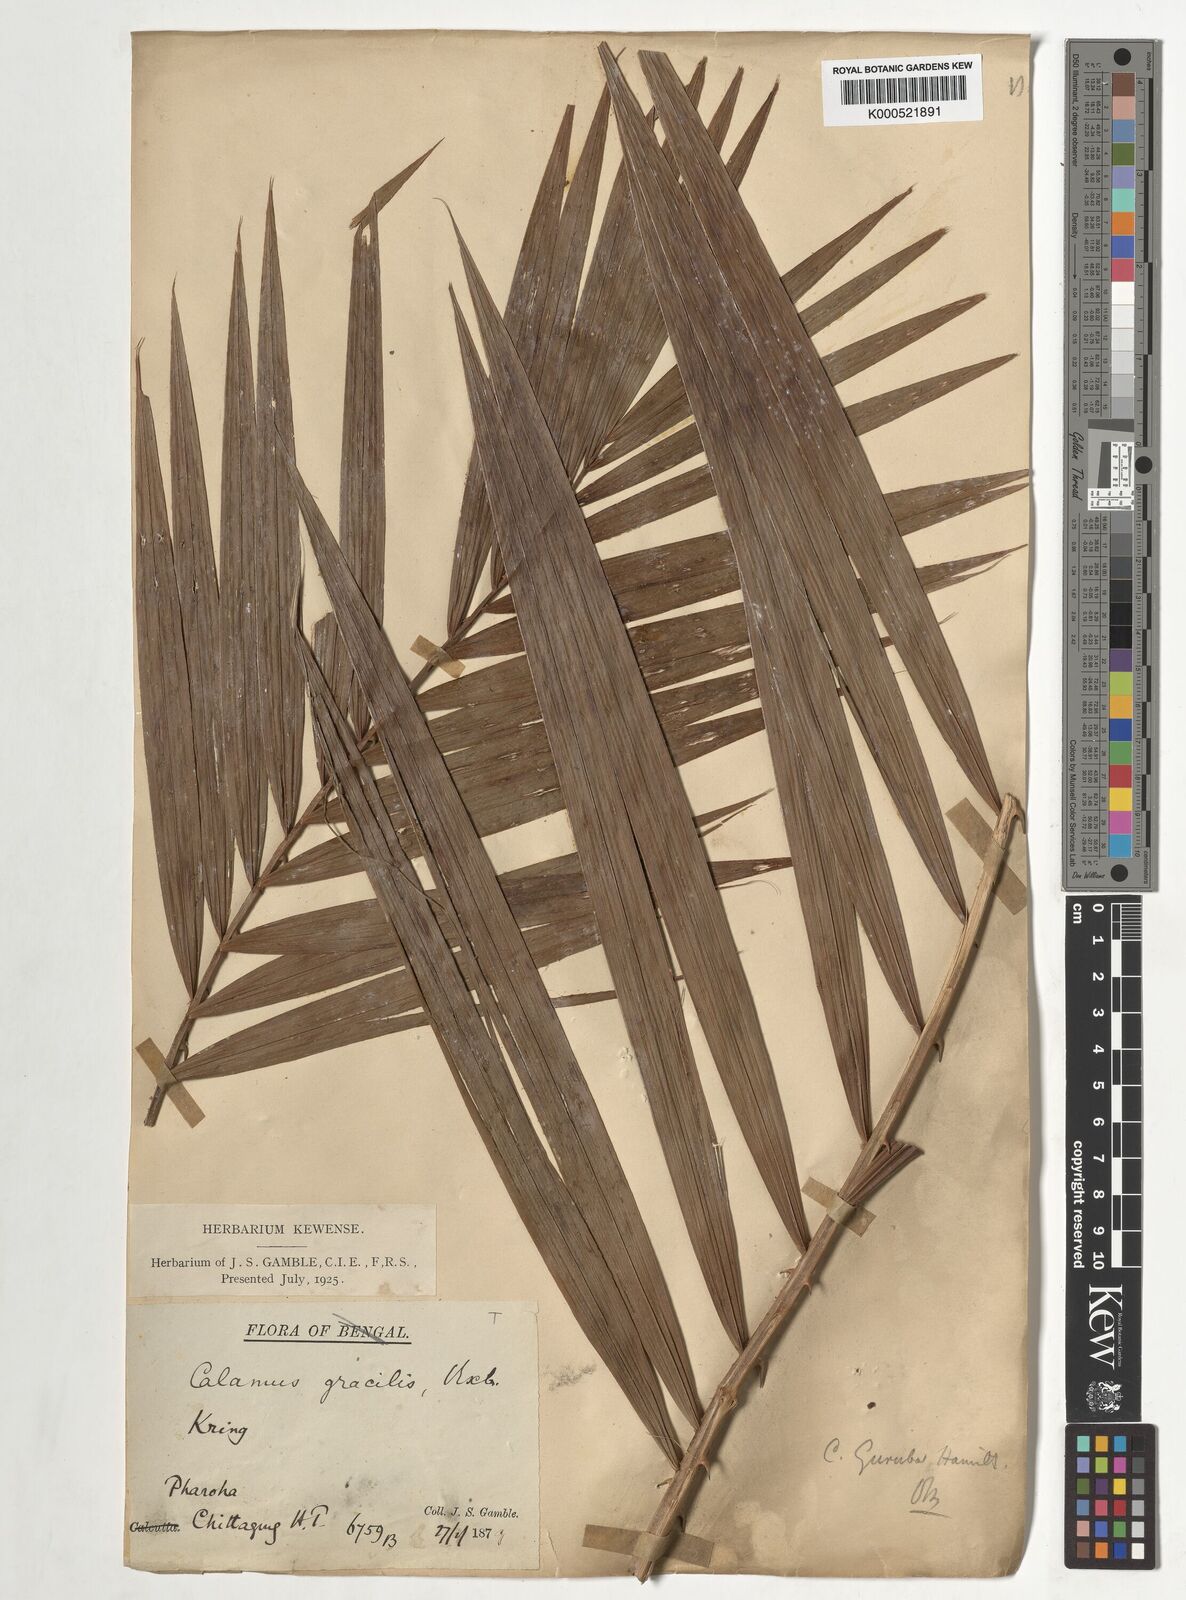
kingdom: Plantae
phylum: Tracheophyta
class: Liliopsida
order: Arecales
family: Arecaceae
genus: Calamus
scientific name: Calamus
